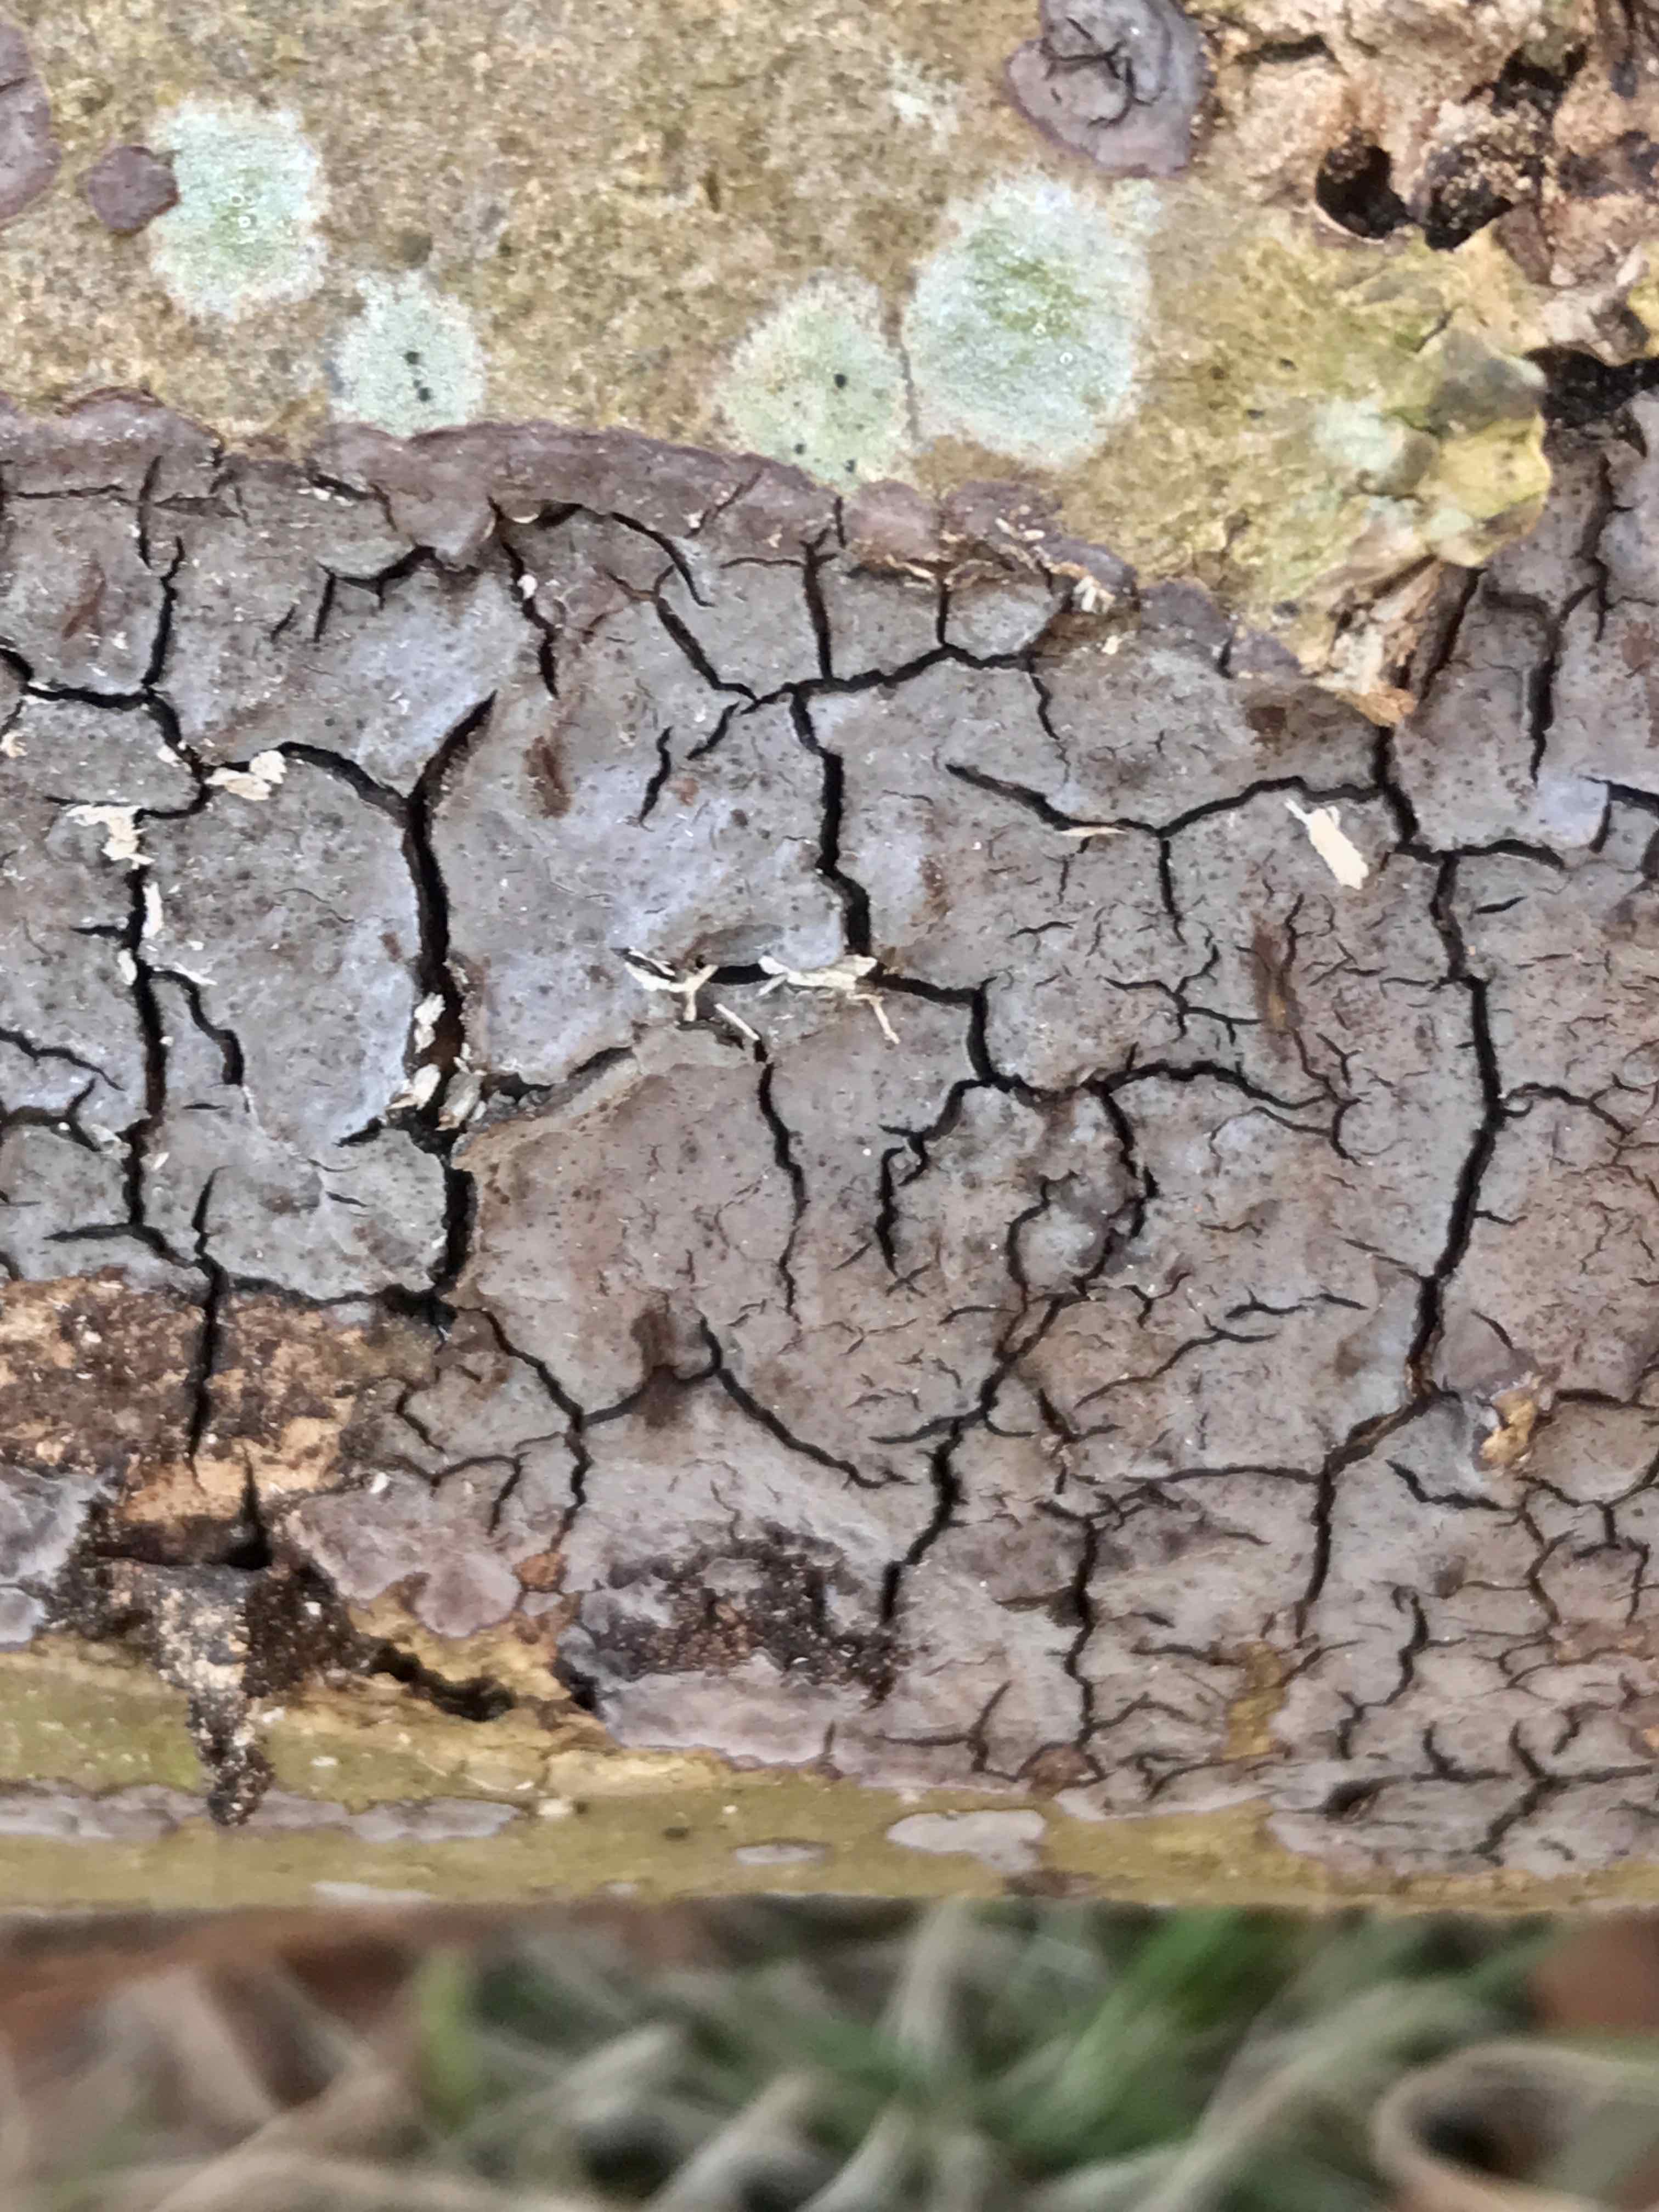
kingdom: Fungi
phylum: Basidiomycota
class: Agaricomycetes
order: Russulales
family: Peniophoraceae
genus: Peniophora
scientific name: Peniophora
